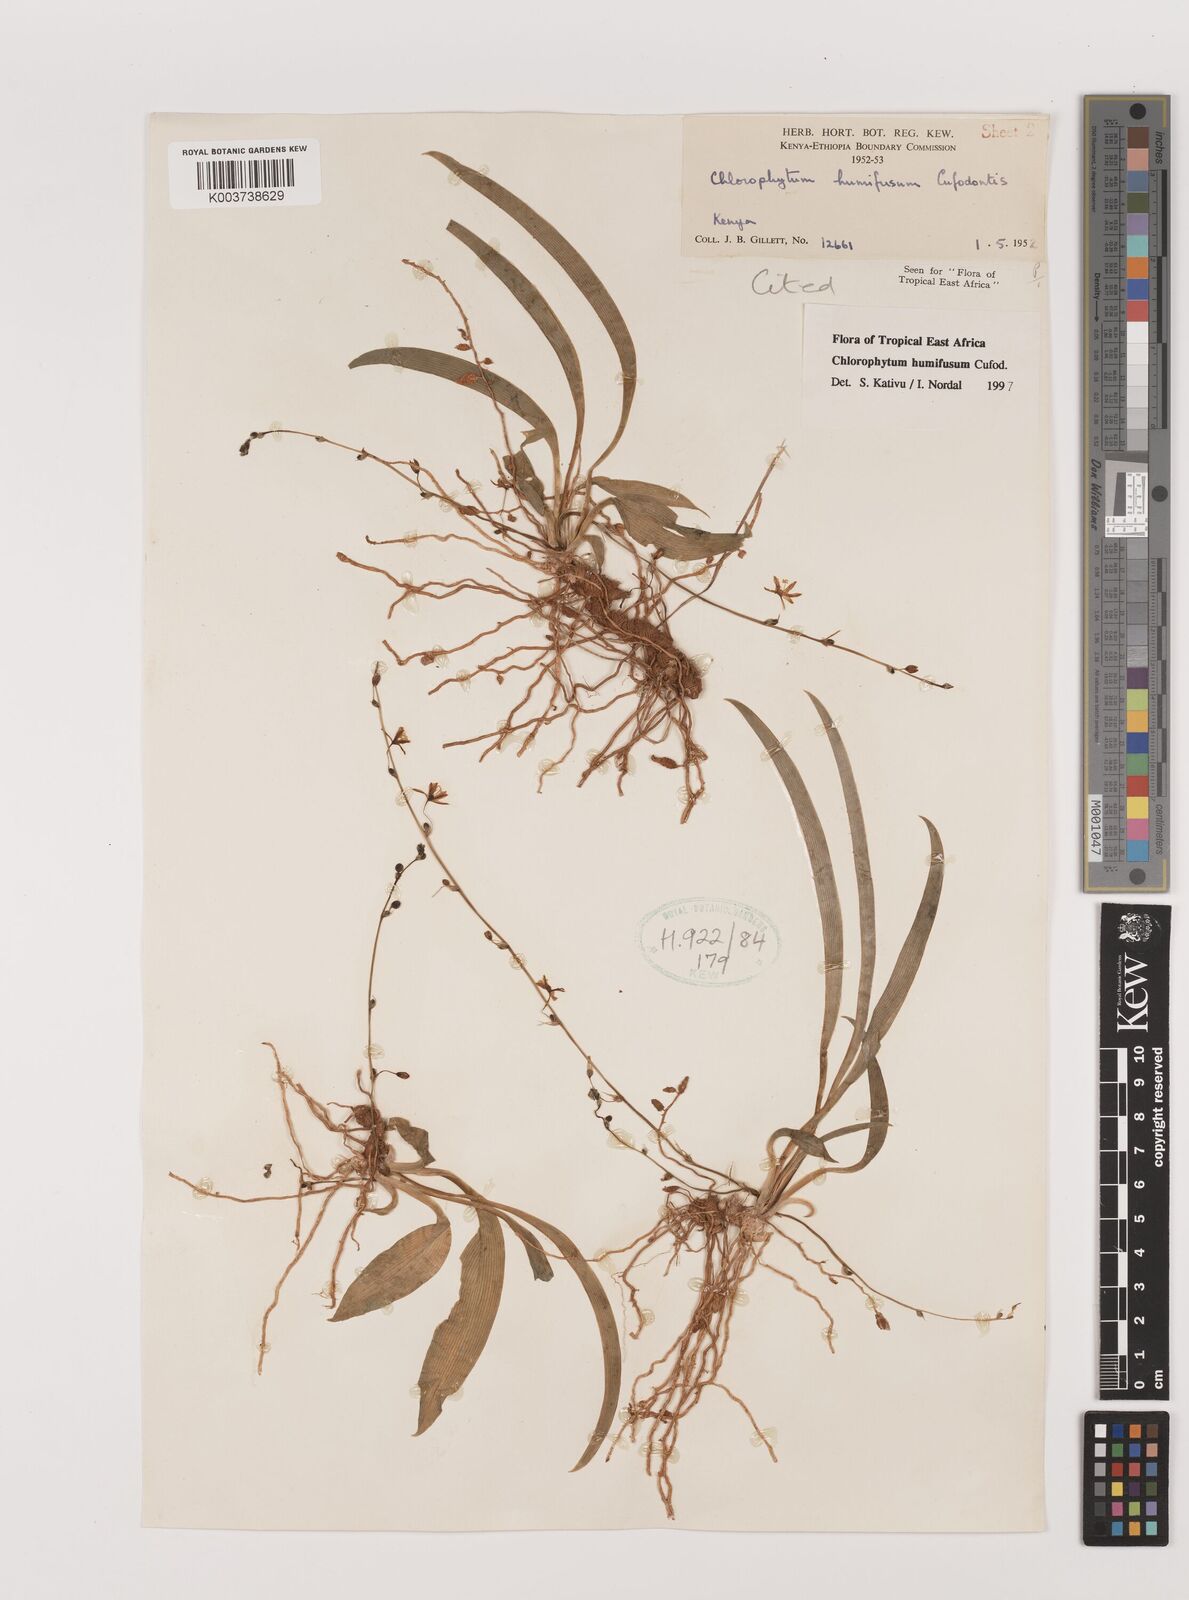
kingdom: Plantae
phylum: Tracheophyta
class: Liliopsida
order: Asparagales
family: Asparagaceae
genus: Chlorophytum
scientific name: Chlorophytum humifusum
